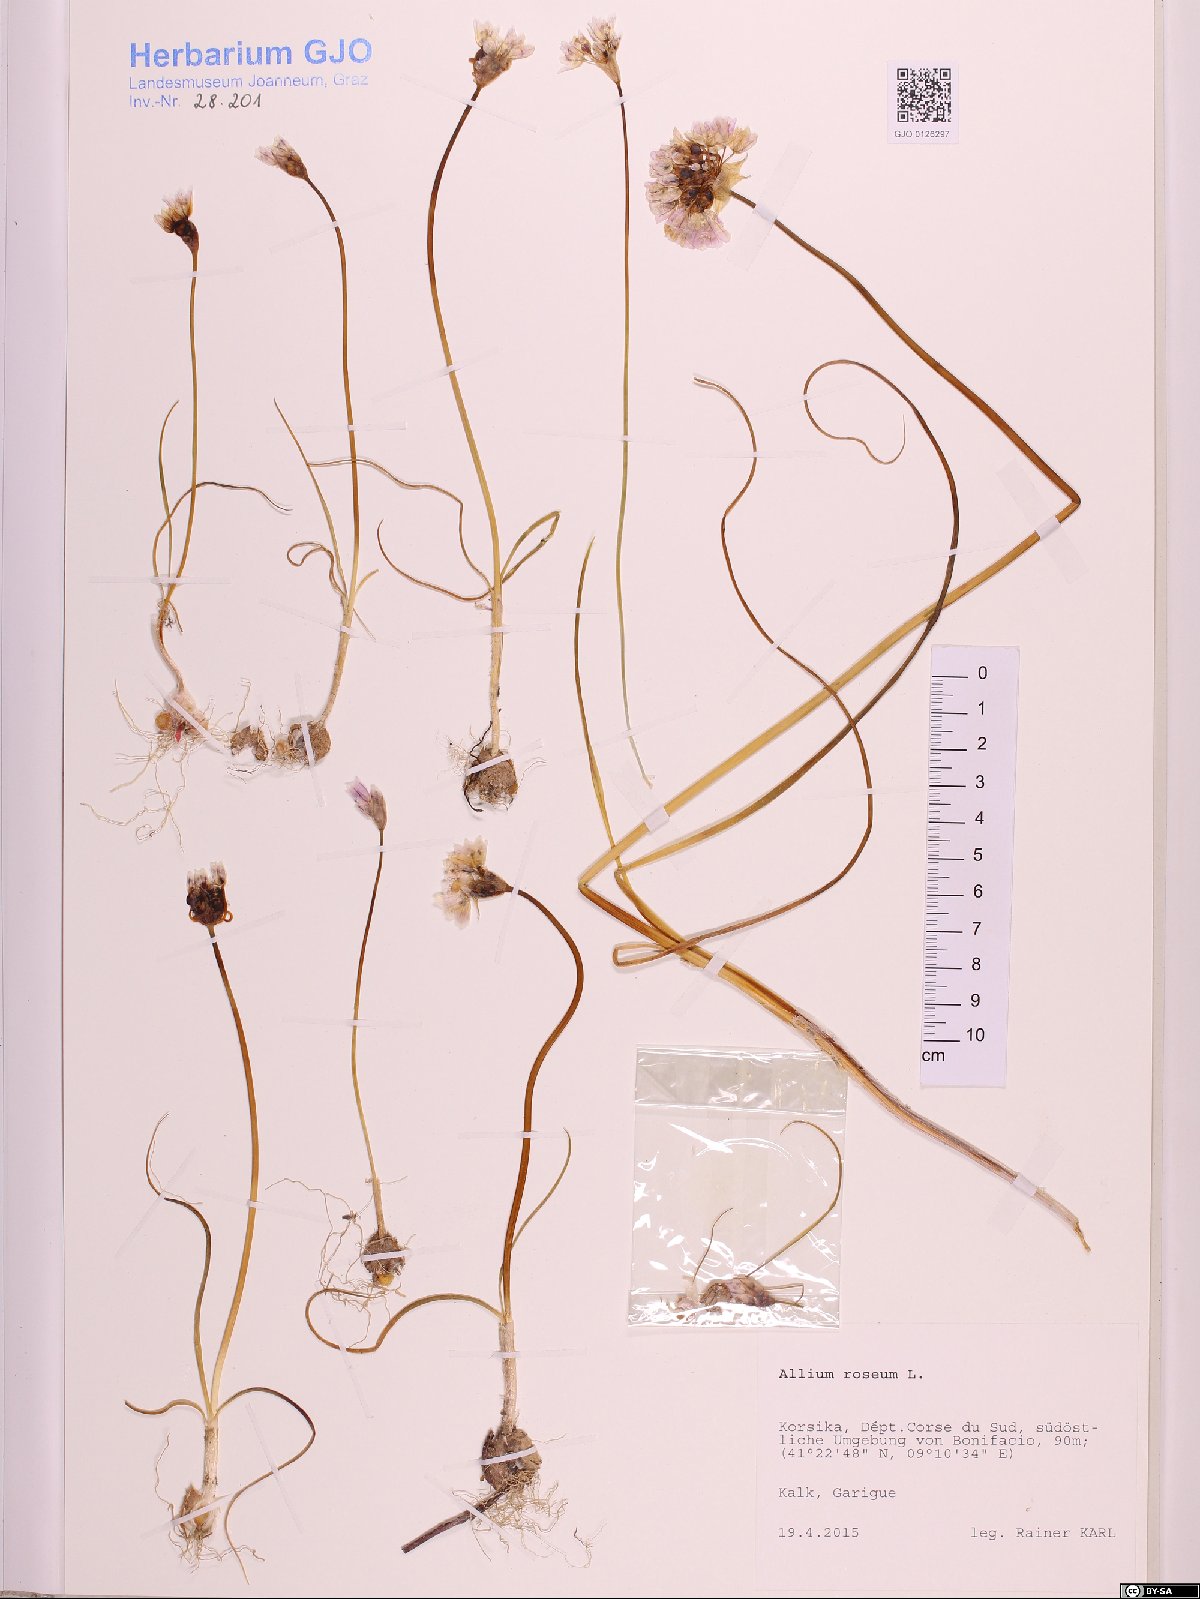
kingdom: Plantae
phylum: Tracheophyta
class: Liliopsida
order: Asparagales
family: Amaryllidaceae
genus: Allium
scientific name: Allium roseum
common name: Rosy garlic
